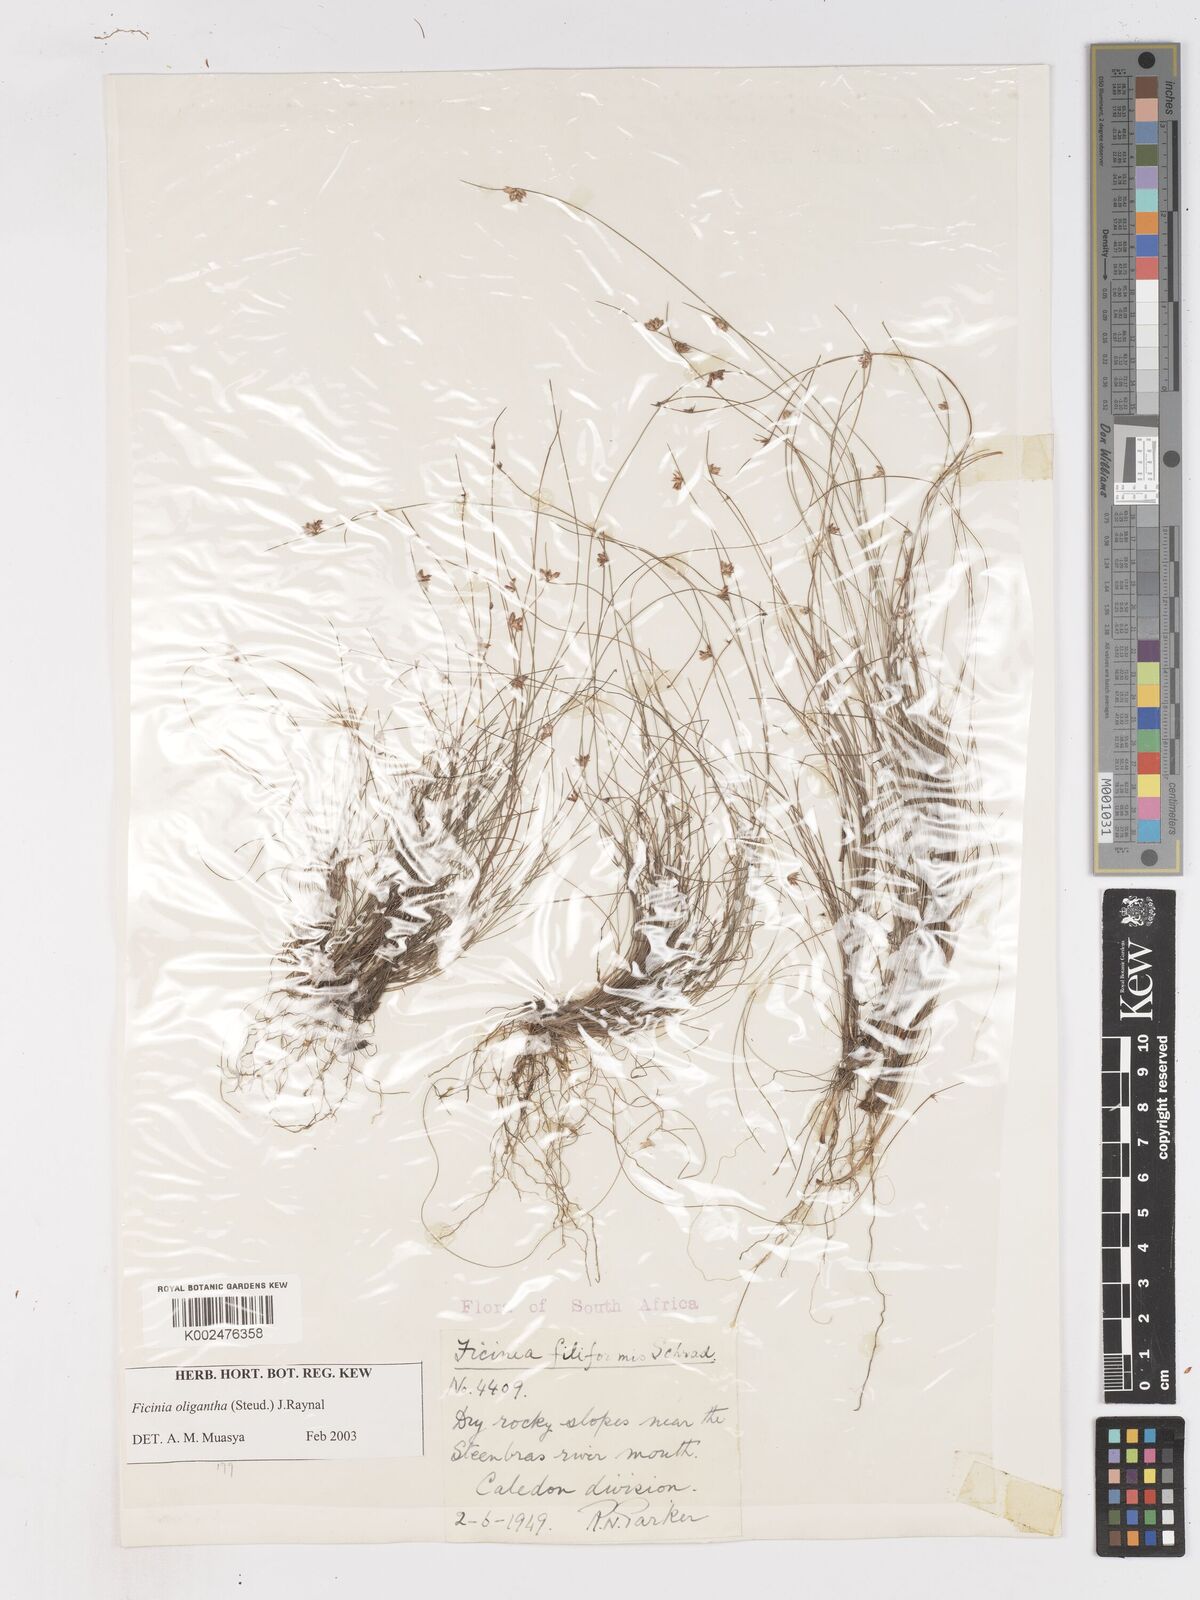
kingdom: Plantae
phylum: Tracheophyta
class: Liliopsida
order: Poales
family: Cyperaceae
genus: Ficinia
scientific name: Ficinia oligantha
